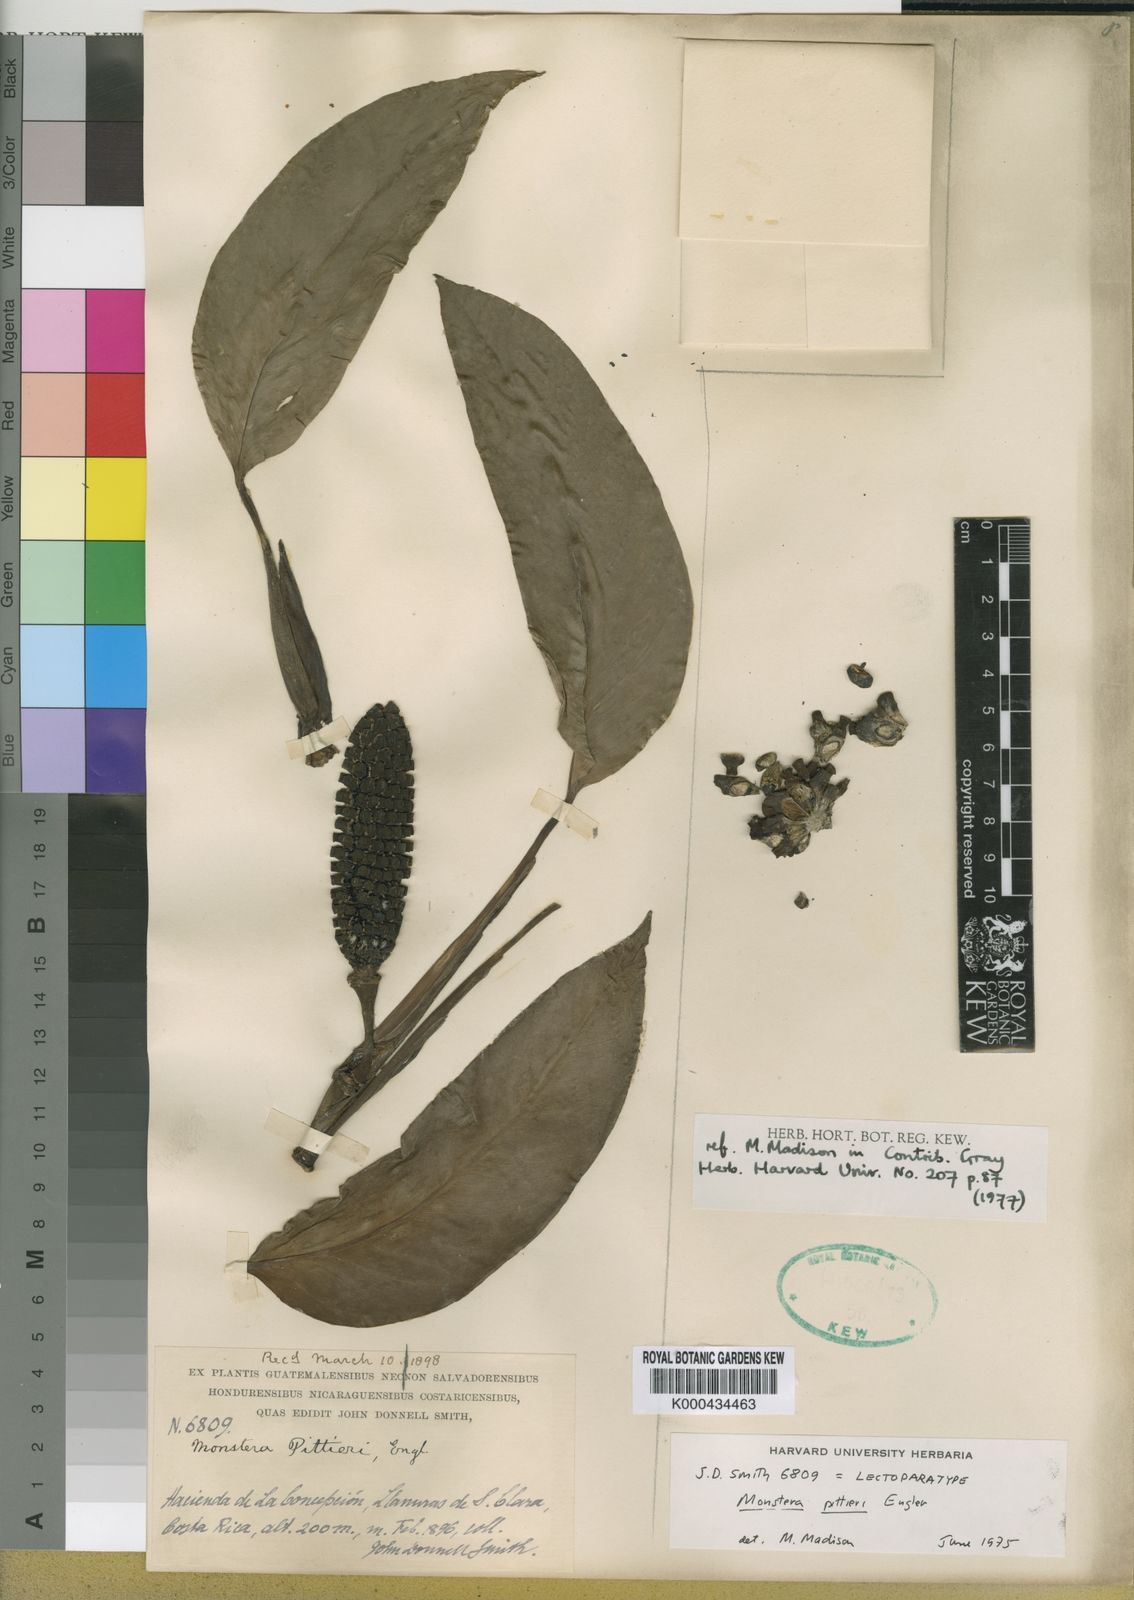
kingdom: Plantae
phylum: Tracheophyta
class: Liliopsida
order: Alismatales
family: Araceae
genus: Monstera
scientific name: Monstera
